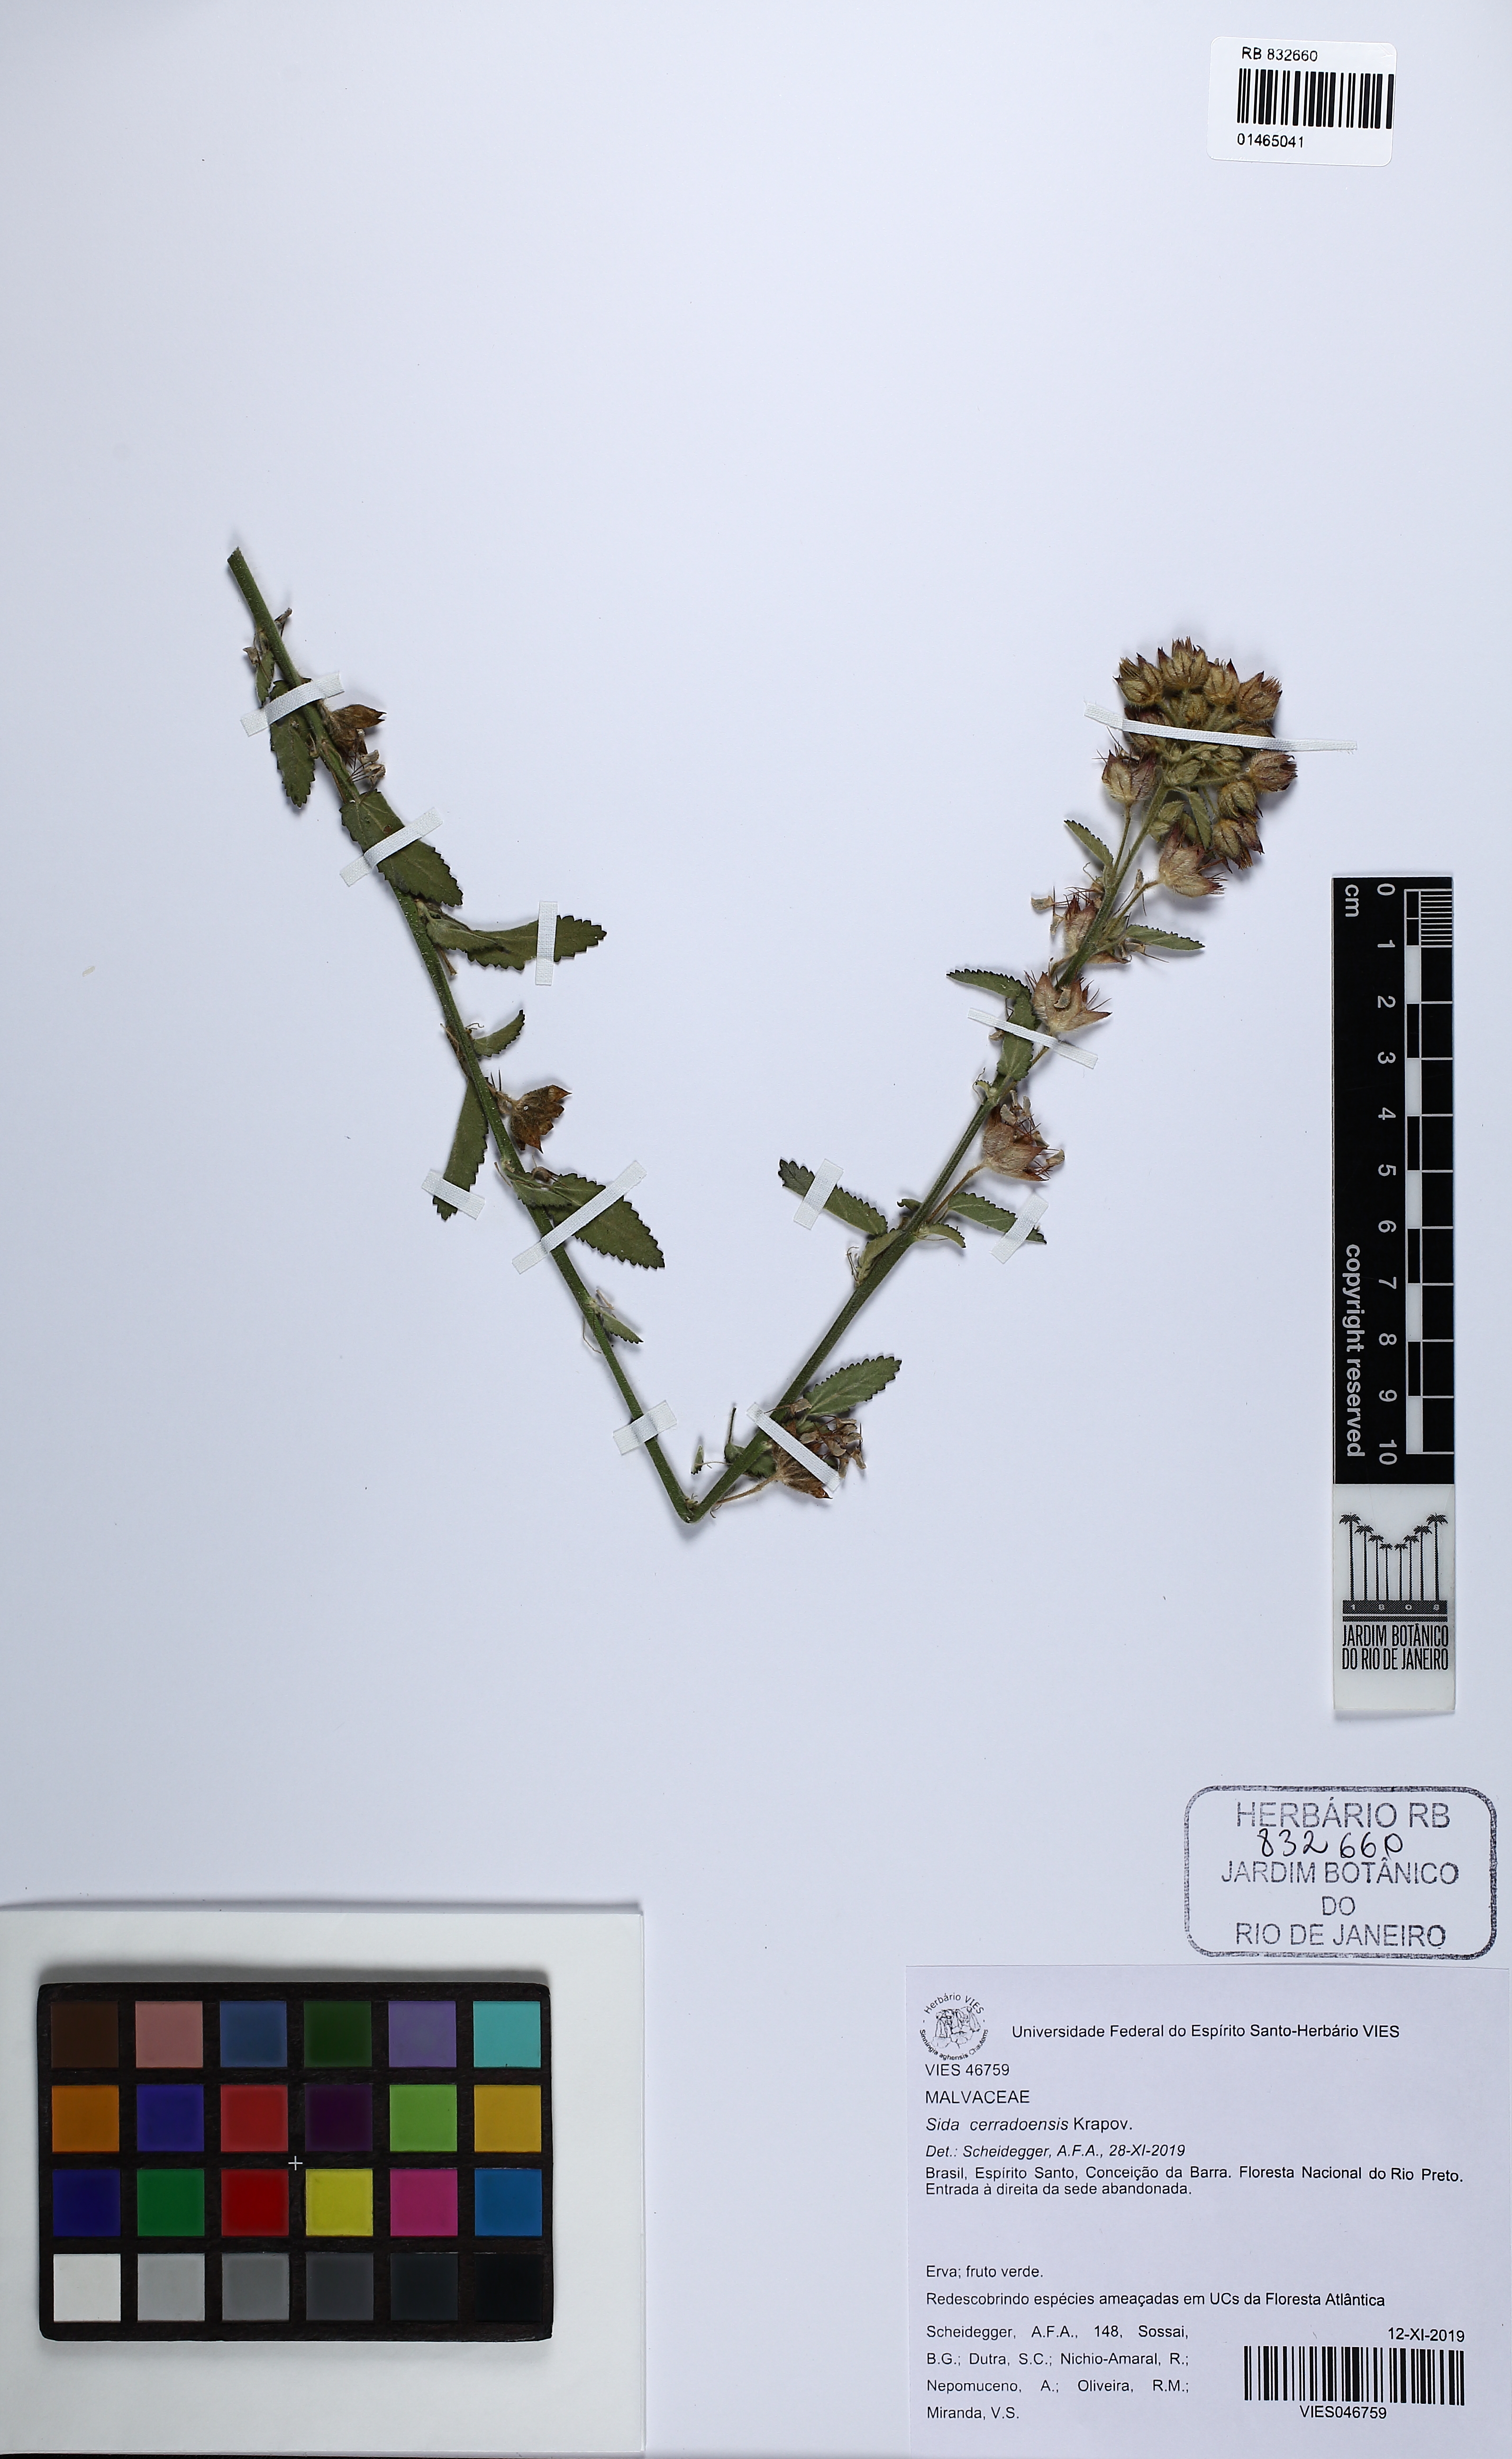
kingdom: Plantae
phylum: Tracheophyta
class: Magnoliopsida
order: Malvales
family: Malvaceae
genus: Sida
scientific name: Sida cerradoensis
